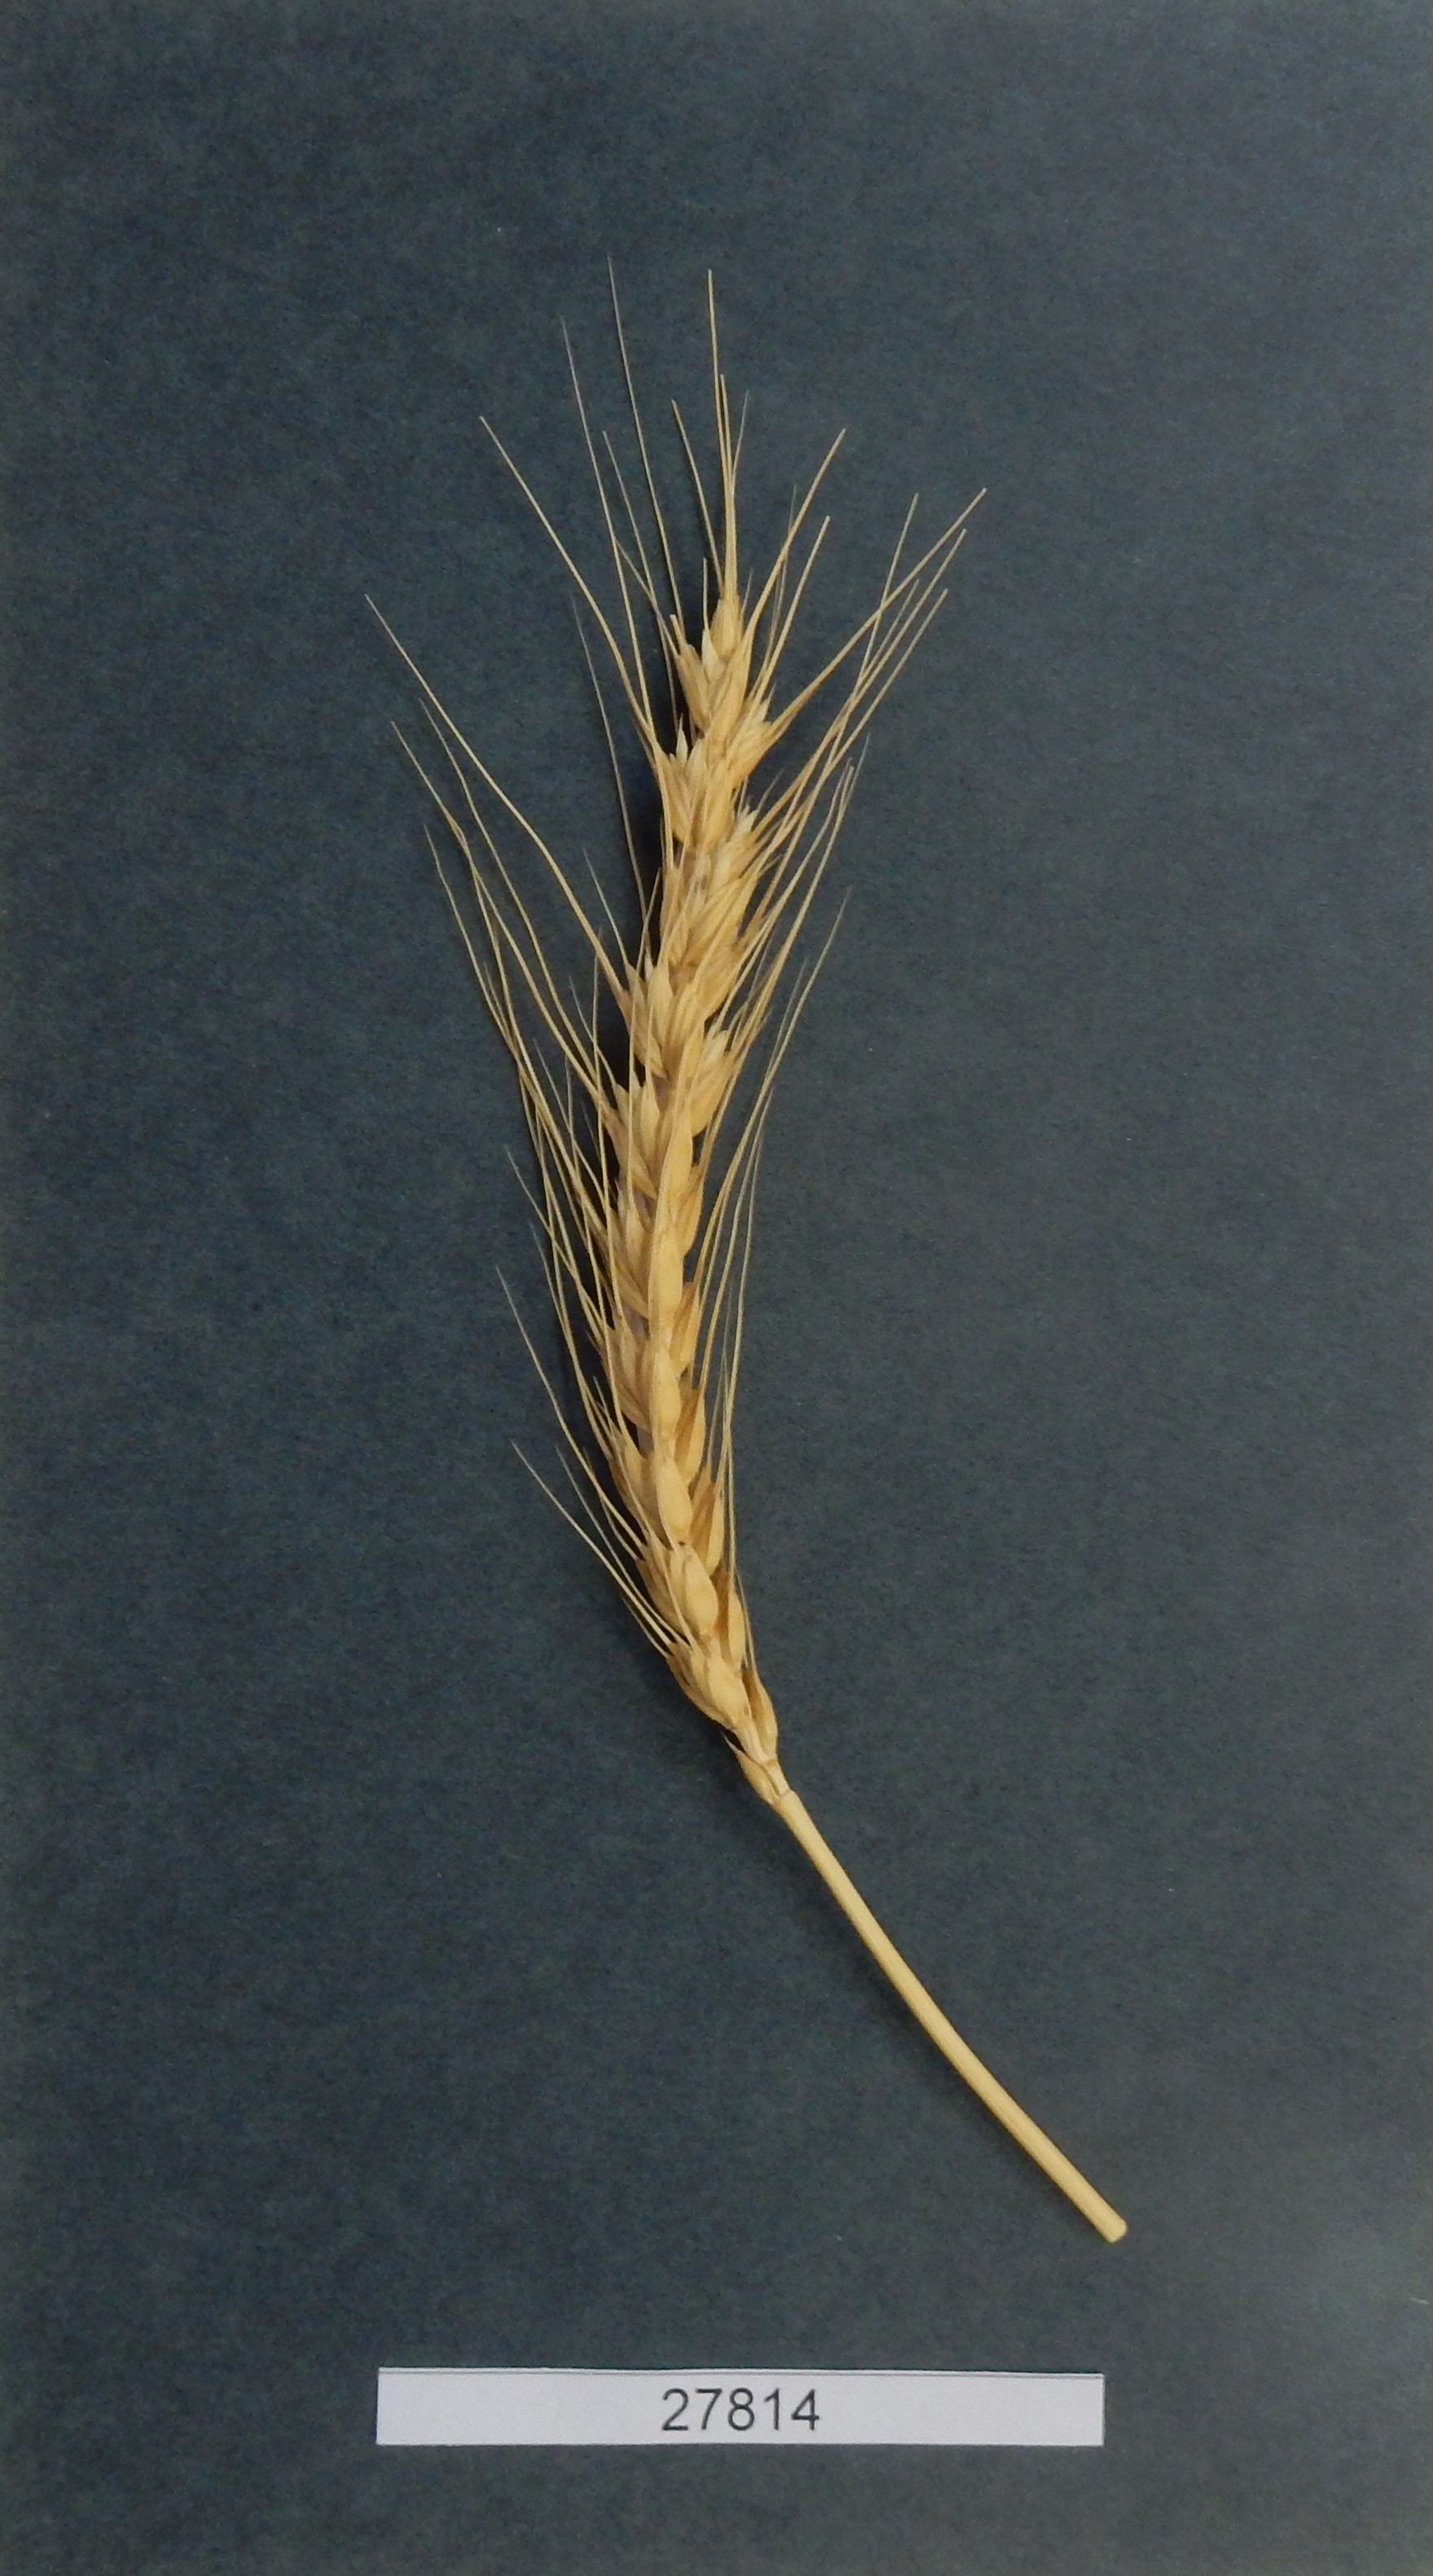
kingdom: Plantae
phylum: Tracheophyta
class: Liliopsida
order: Poales
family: Poaceae
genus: Triticum
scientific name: Triticum aestivum
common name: Common wheat
